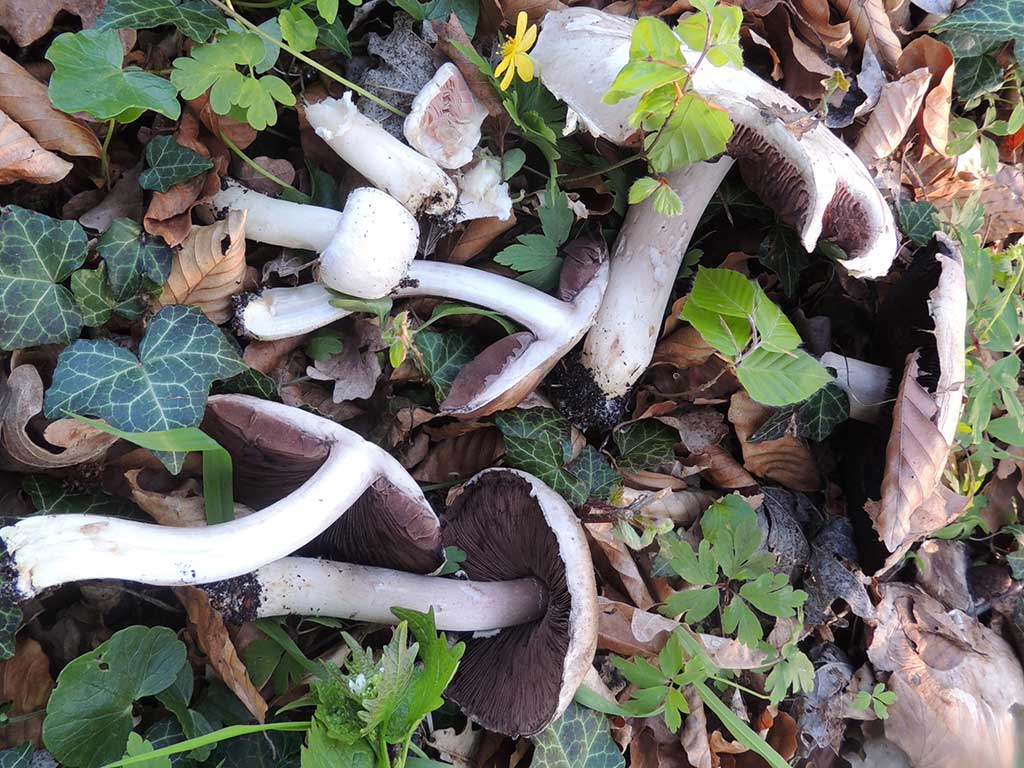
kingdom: Fungi
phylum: Basidiomycota
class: Agaricomycetes
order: Agaricales
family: Agaricaceae
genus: Agaricus
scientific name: Agaricus altipes
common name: sommer-champignon
